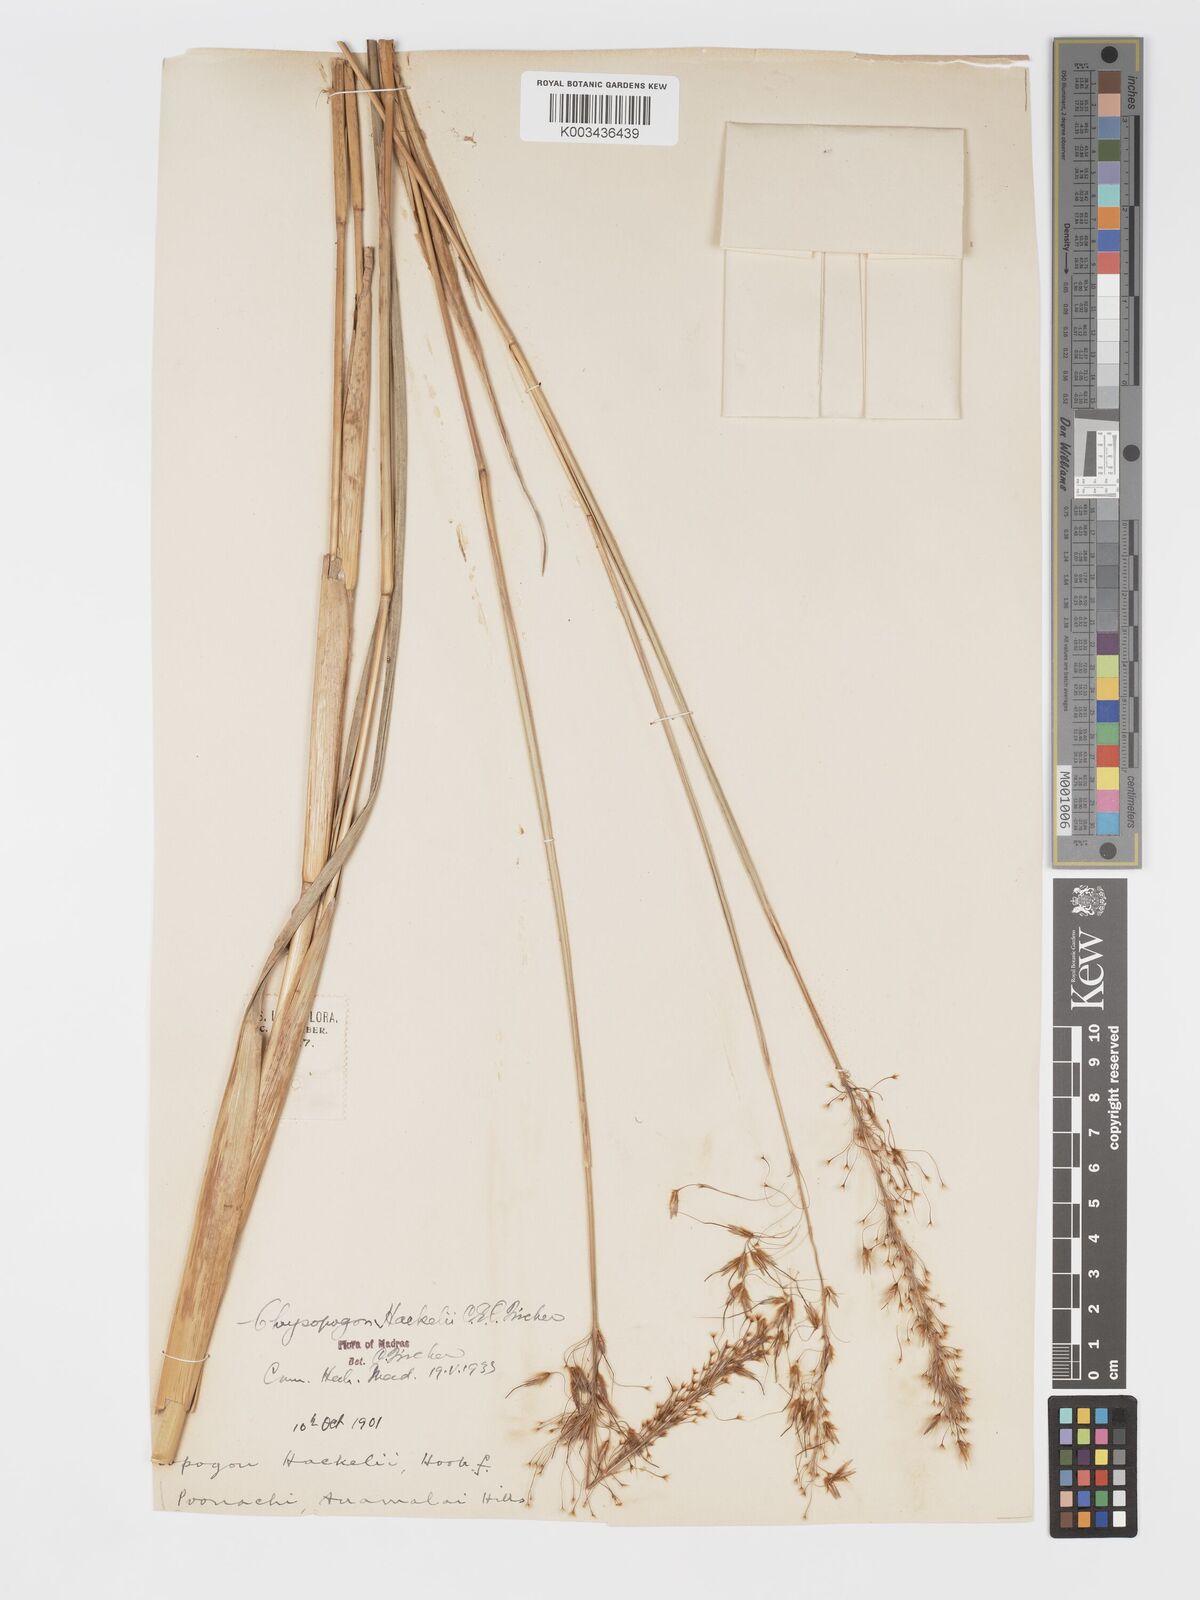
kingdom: Plantae
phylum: Tracheophyta
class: Liliopsida
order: Poales
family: Poaceae
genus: Chrysopogon
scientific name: Chrysopogon hackelii
